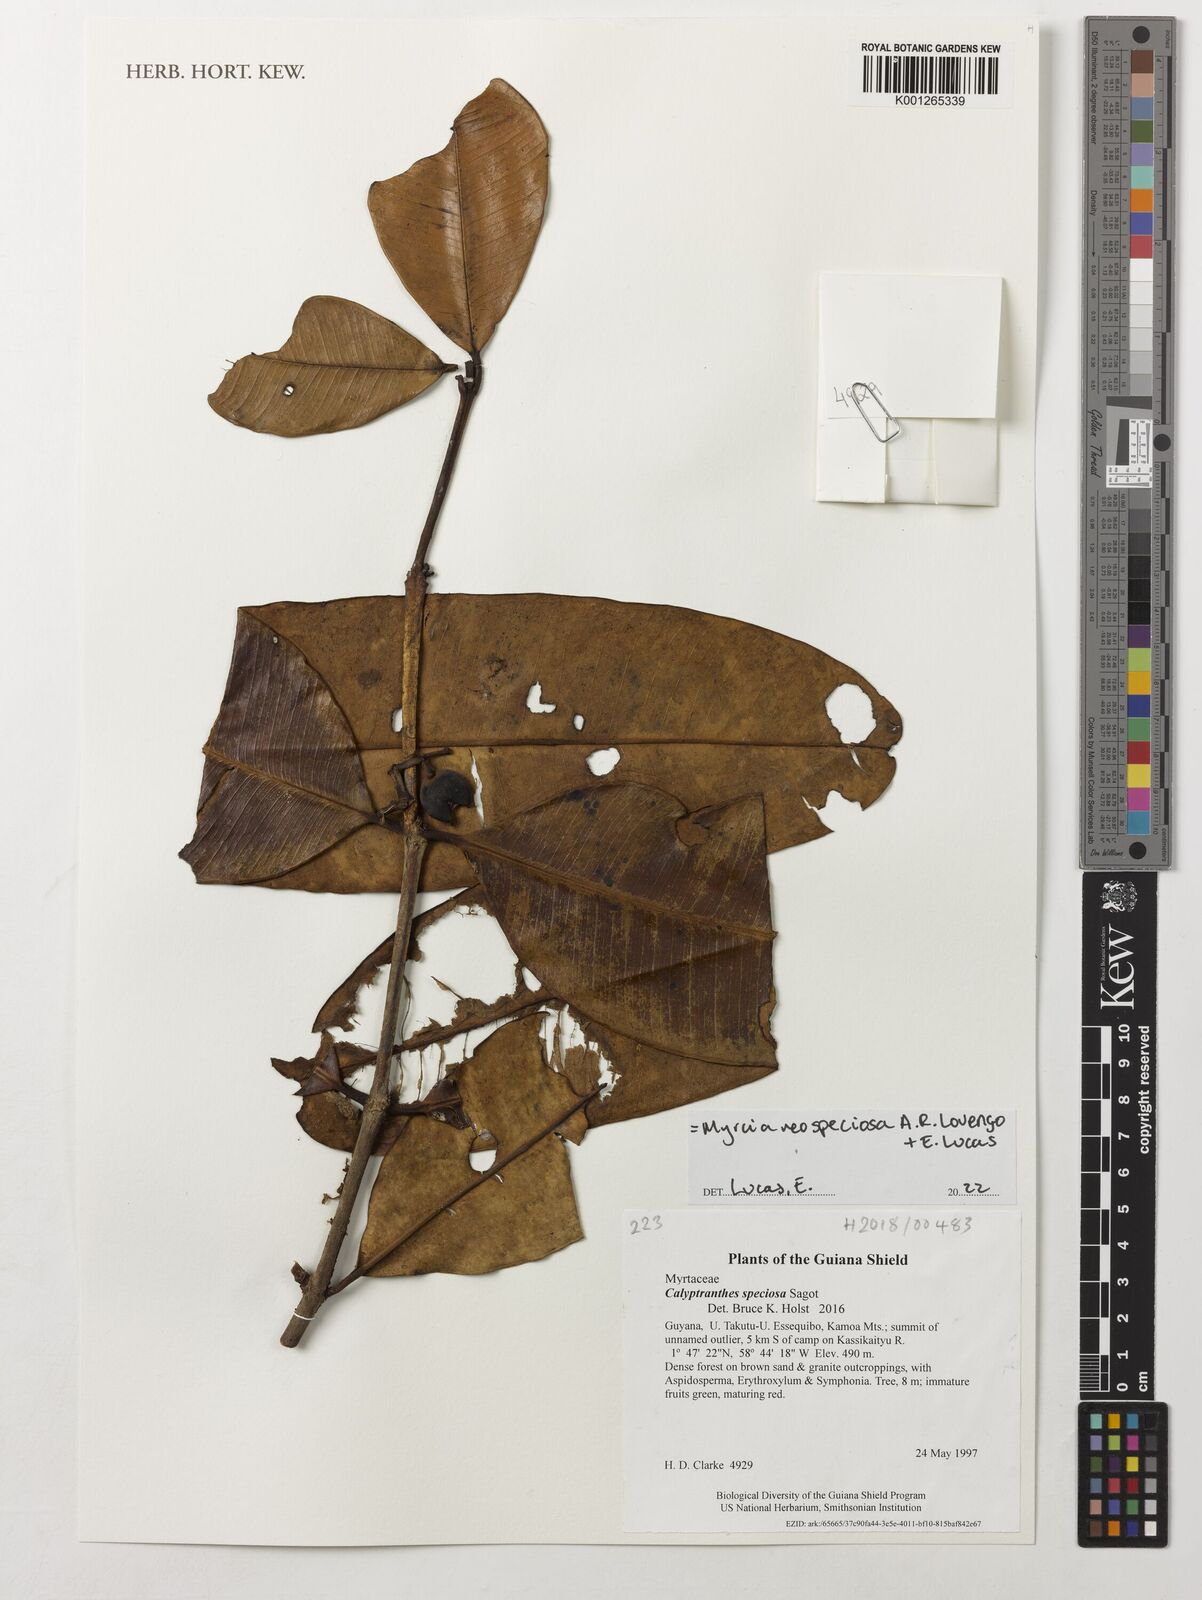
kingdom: Plantae
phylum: Tracheophyta
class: Magnoliopsida
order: Myrtales
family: Myrtaceae
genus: Myrcia
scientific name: Myrcia neospeciosa
